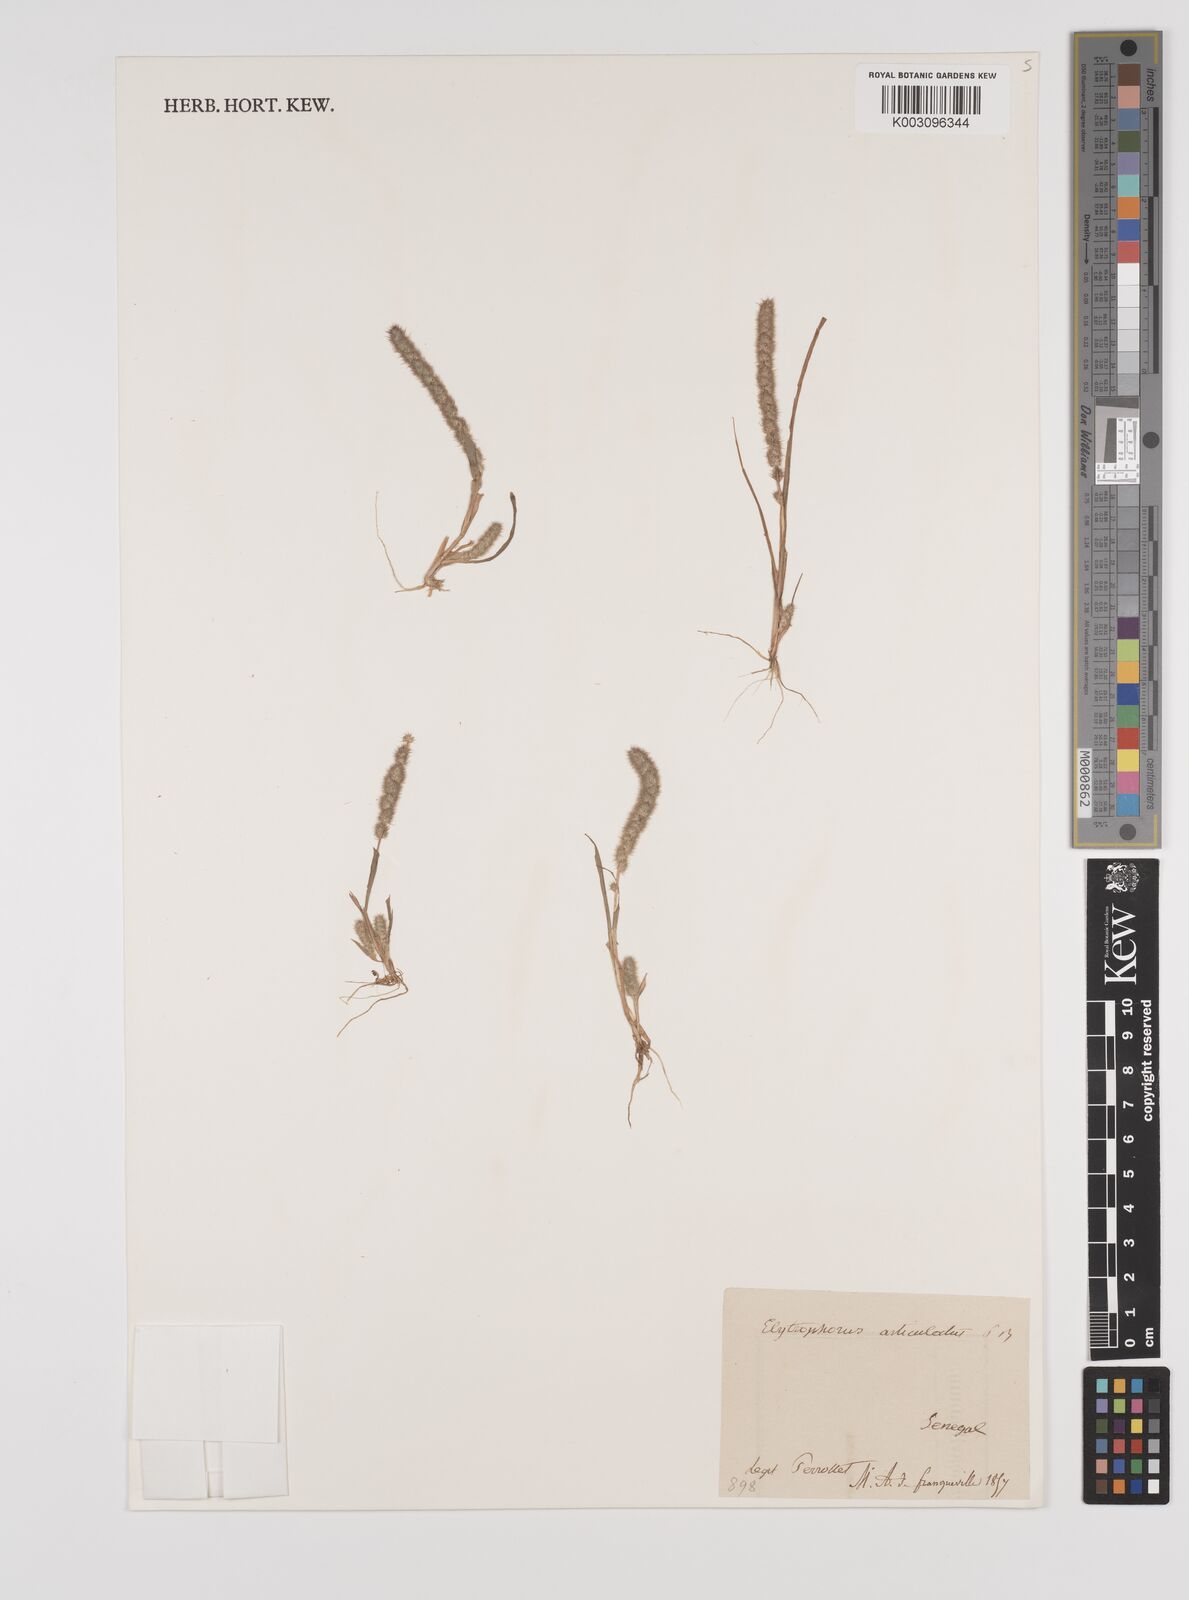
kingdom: Plantae
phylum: Tracheophyta
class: Liliopsida
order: Poales
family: Poaceae
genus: Elytrophorus
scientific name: Elytrophorus spicatus
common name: Spike grass
